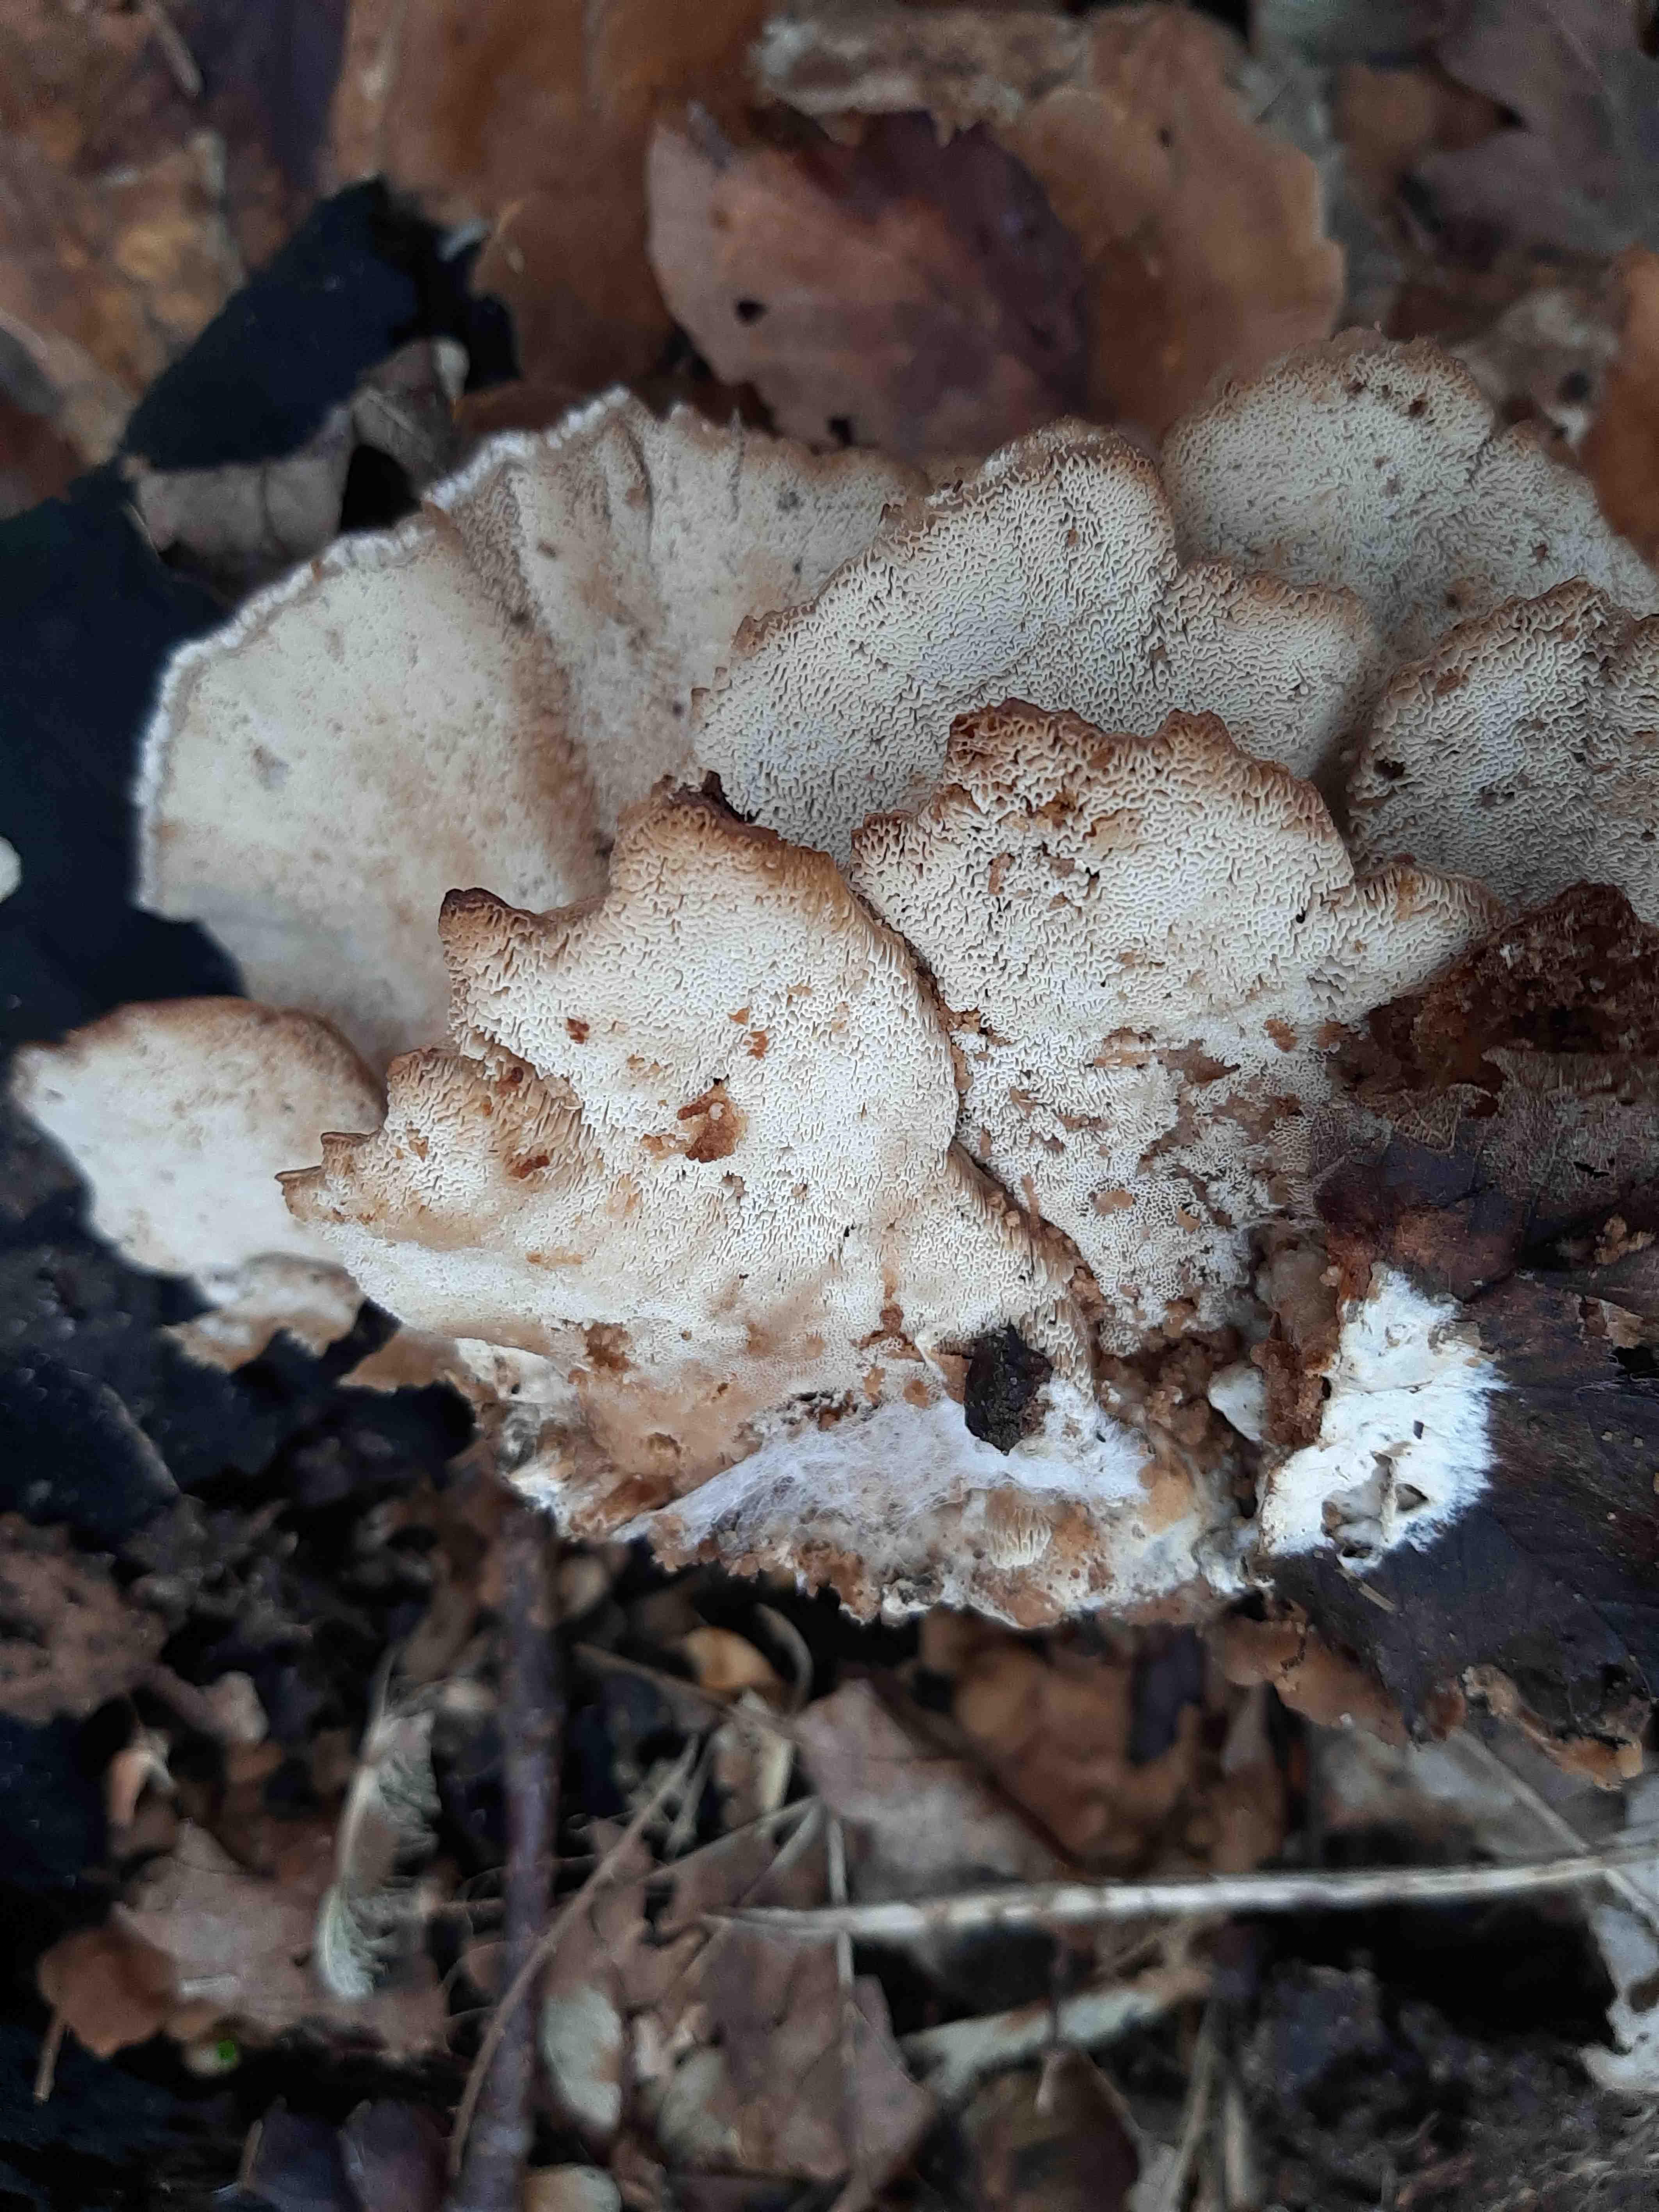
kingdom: Fungi
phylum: Basidiomycota
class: Agaricomycetes
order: Polyporales
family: Phanerochaetaceae
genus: Bjerkandera
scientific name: Bjerkandera fumosa
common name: grågul sodporesvamp
